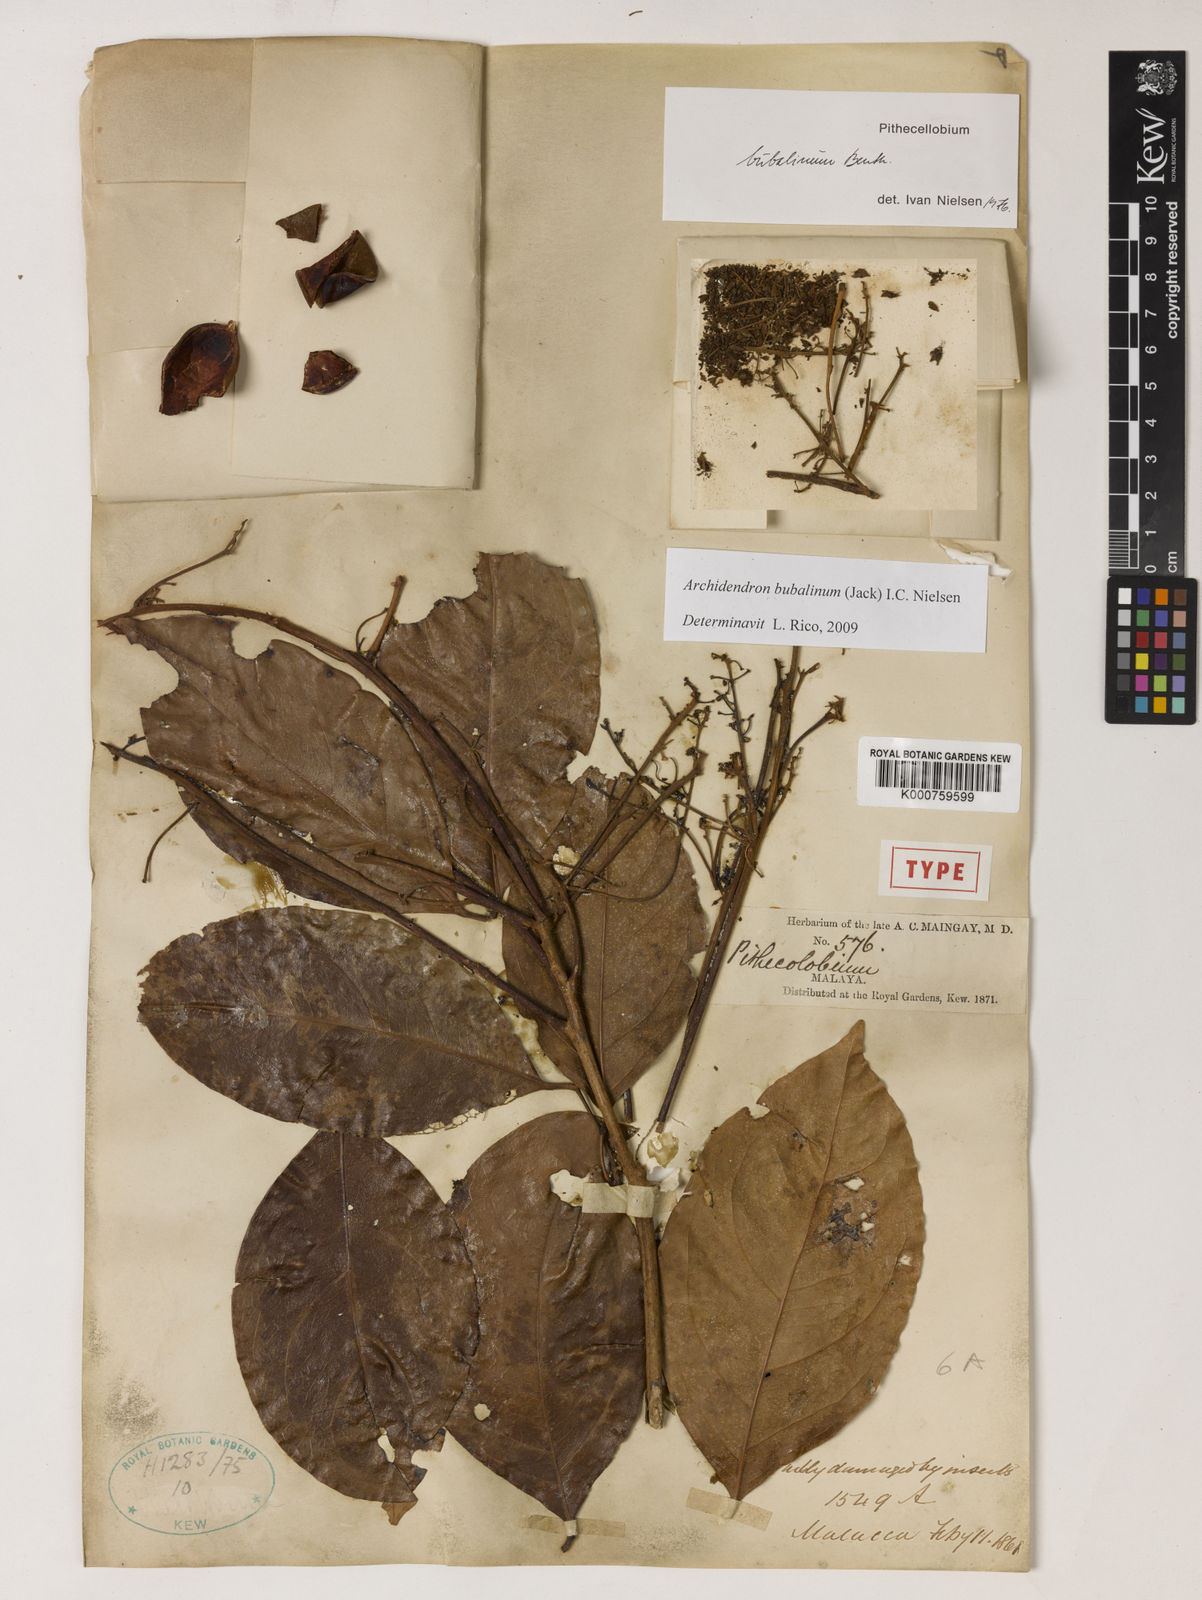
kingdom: Plantae
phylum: Tracheophyta
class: Magnoliopsida
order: Fabales
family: Fabaceae
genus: Archidendron
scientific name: Archidendron bubalinum
